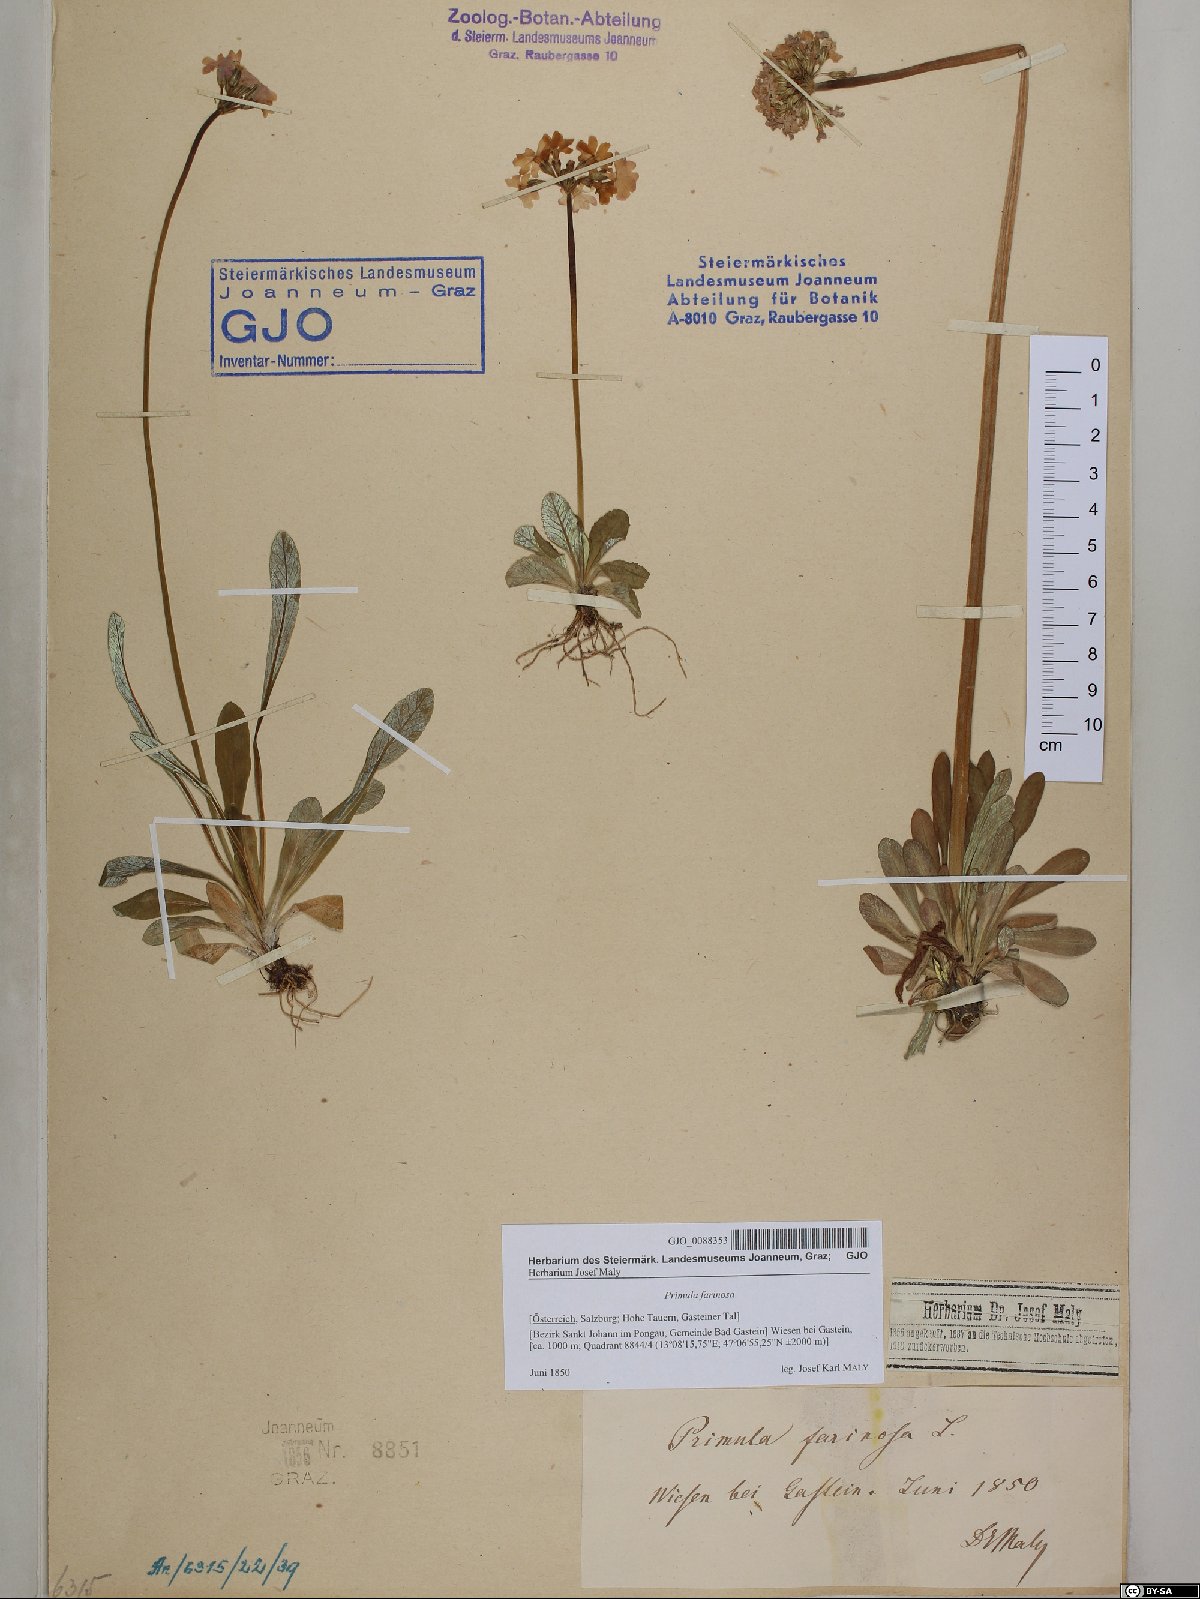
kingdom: Plantae
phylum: Tracheophyta
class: Magnoliopsida
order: Ericales
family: Primulaceae
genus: Primula
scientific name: Primula farinosa
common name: Bird's-eye primrose
